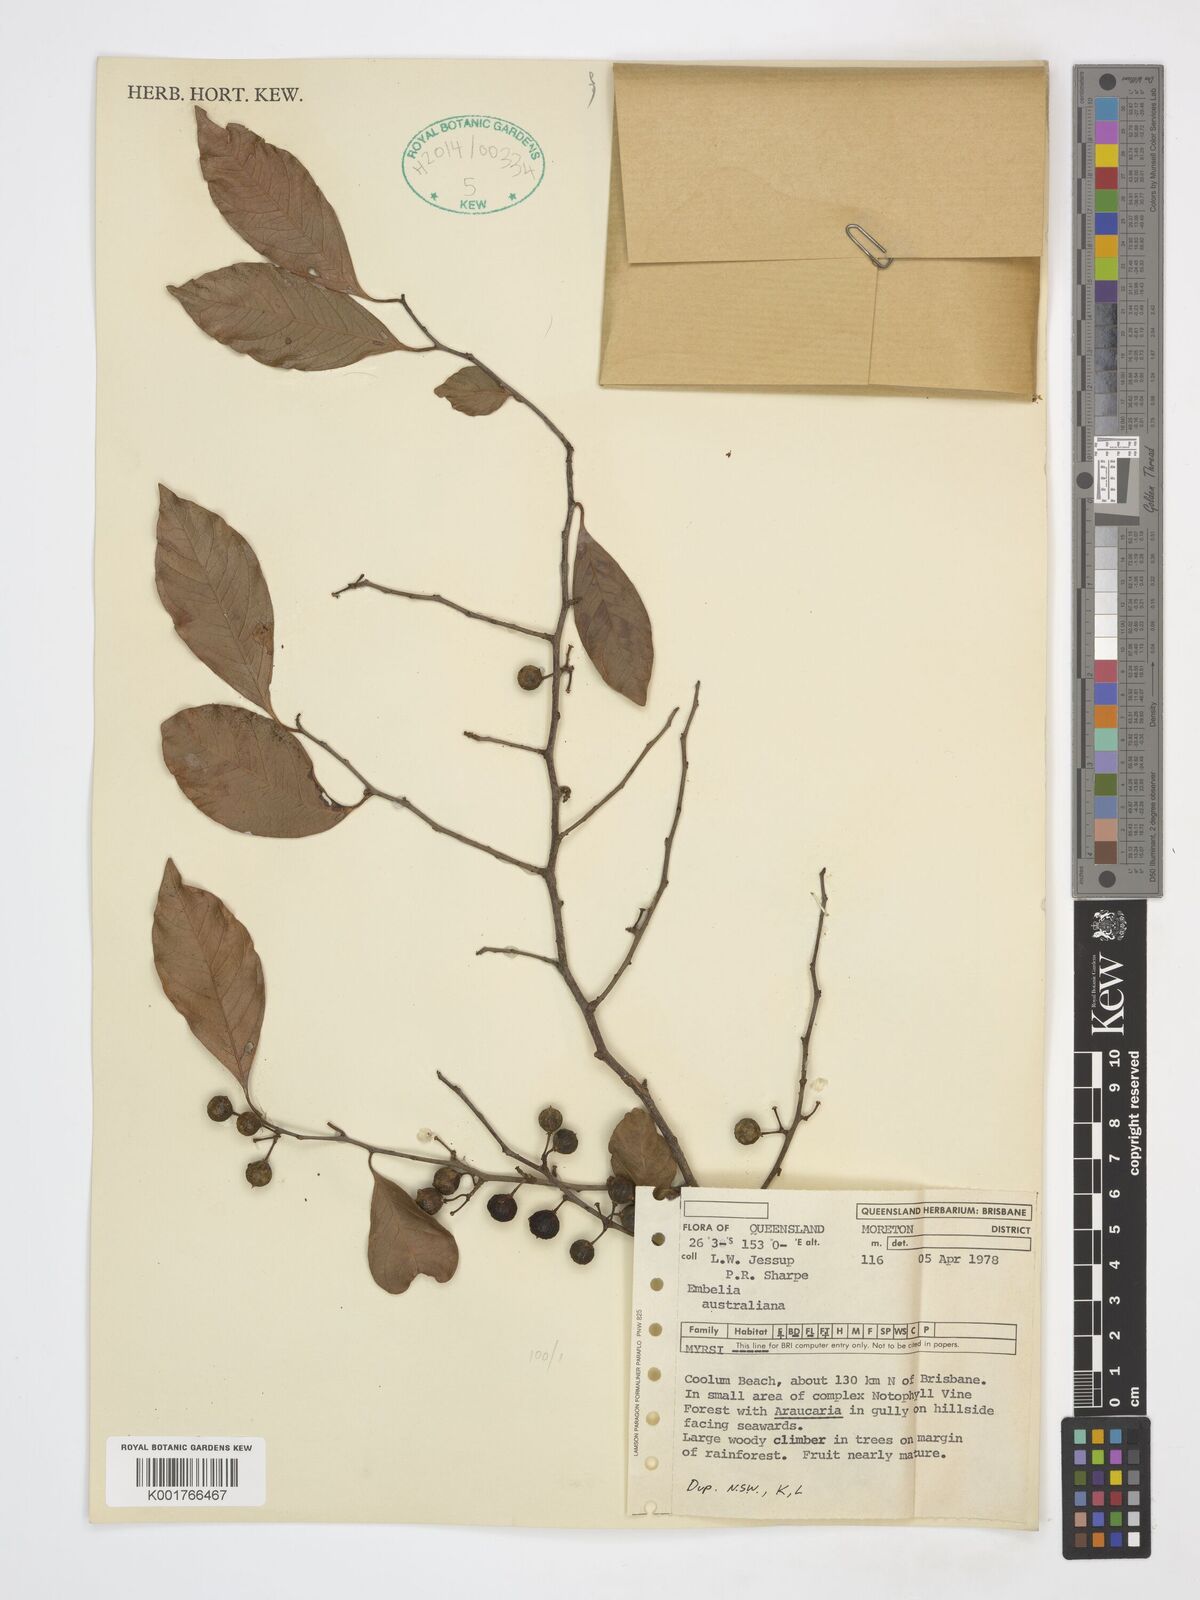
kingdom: Plantae
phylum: Tracheophyta
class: Magnoliopsida
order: Ericales
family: Primulaceae
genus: Embelia
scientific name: Embelia australiana
